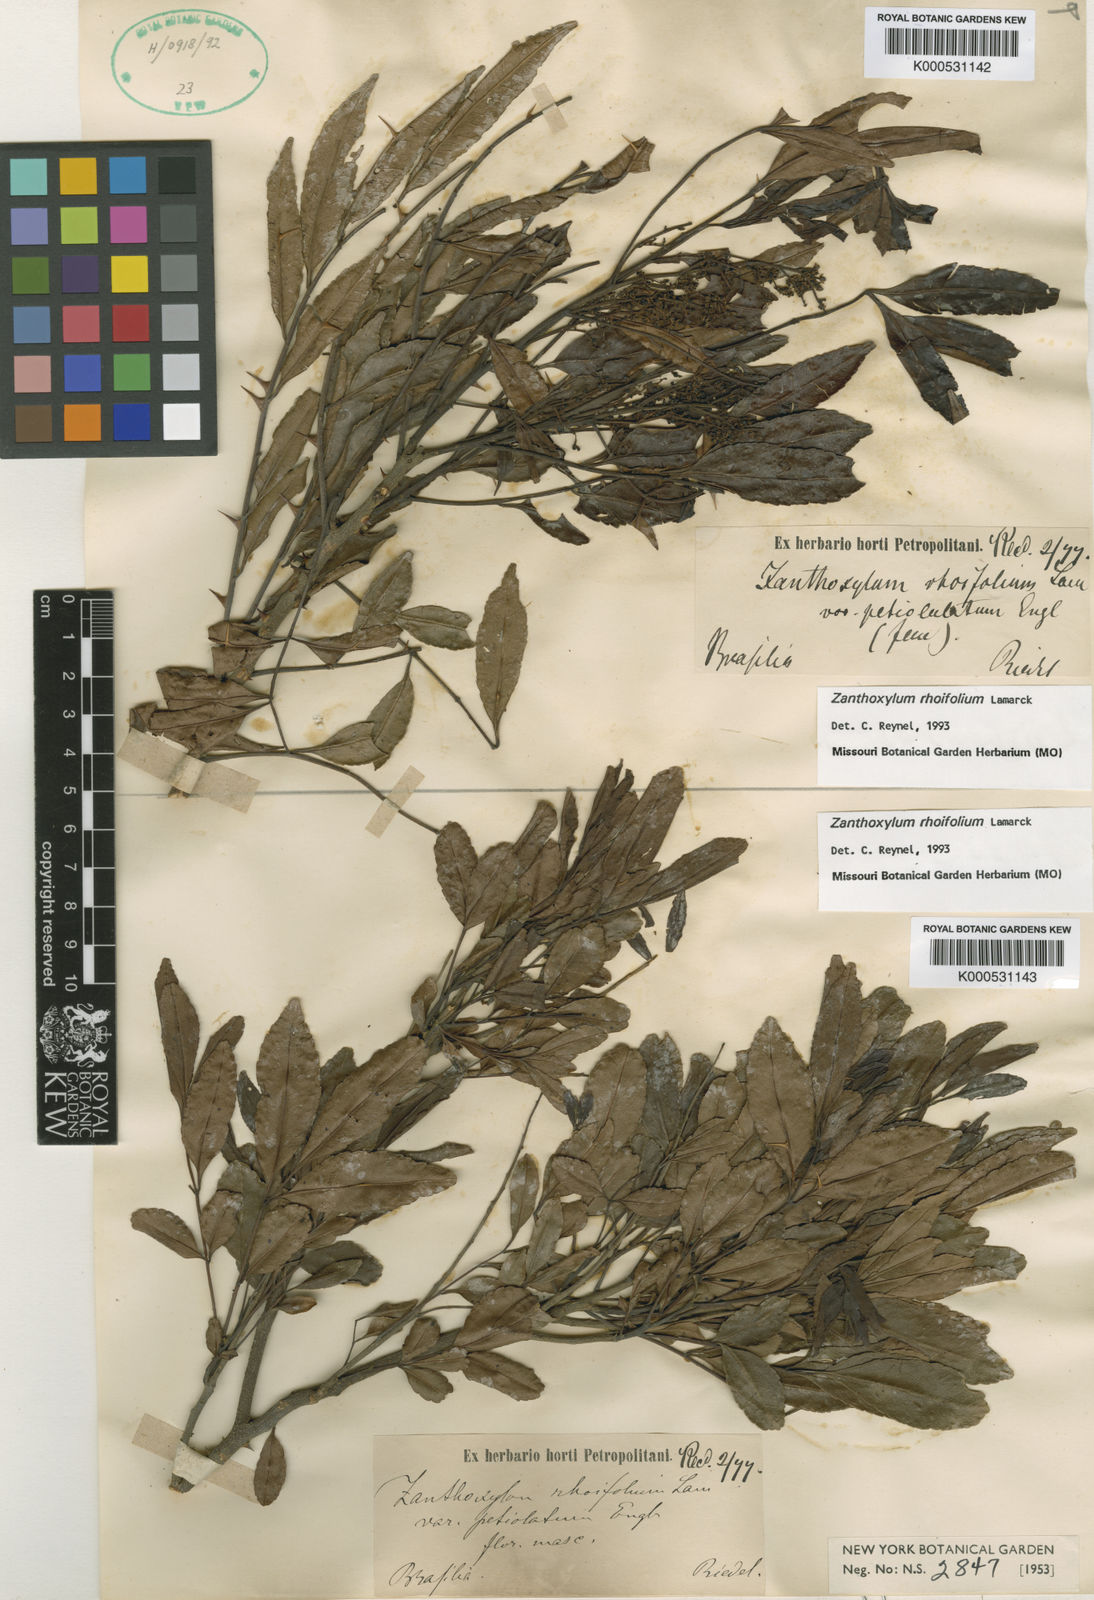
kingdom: Plantae
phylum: Tracheophyta
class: Magnoliopsida
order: Sapindales
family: Rutaceae
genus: Zanthoxylum
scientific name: Zanthoxylum rhoifolium
